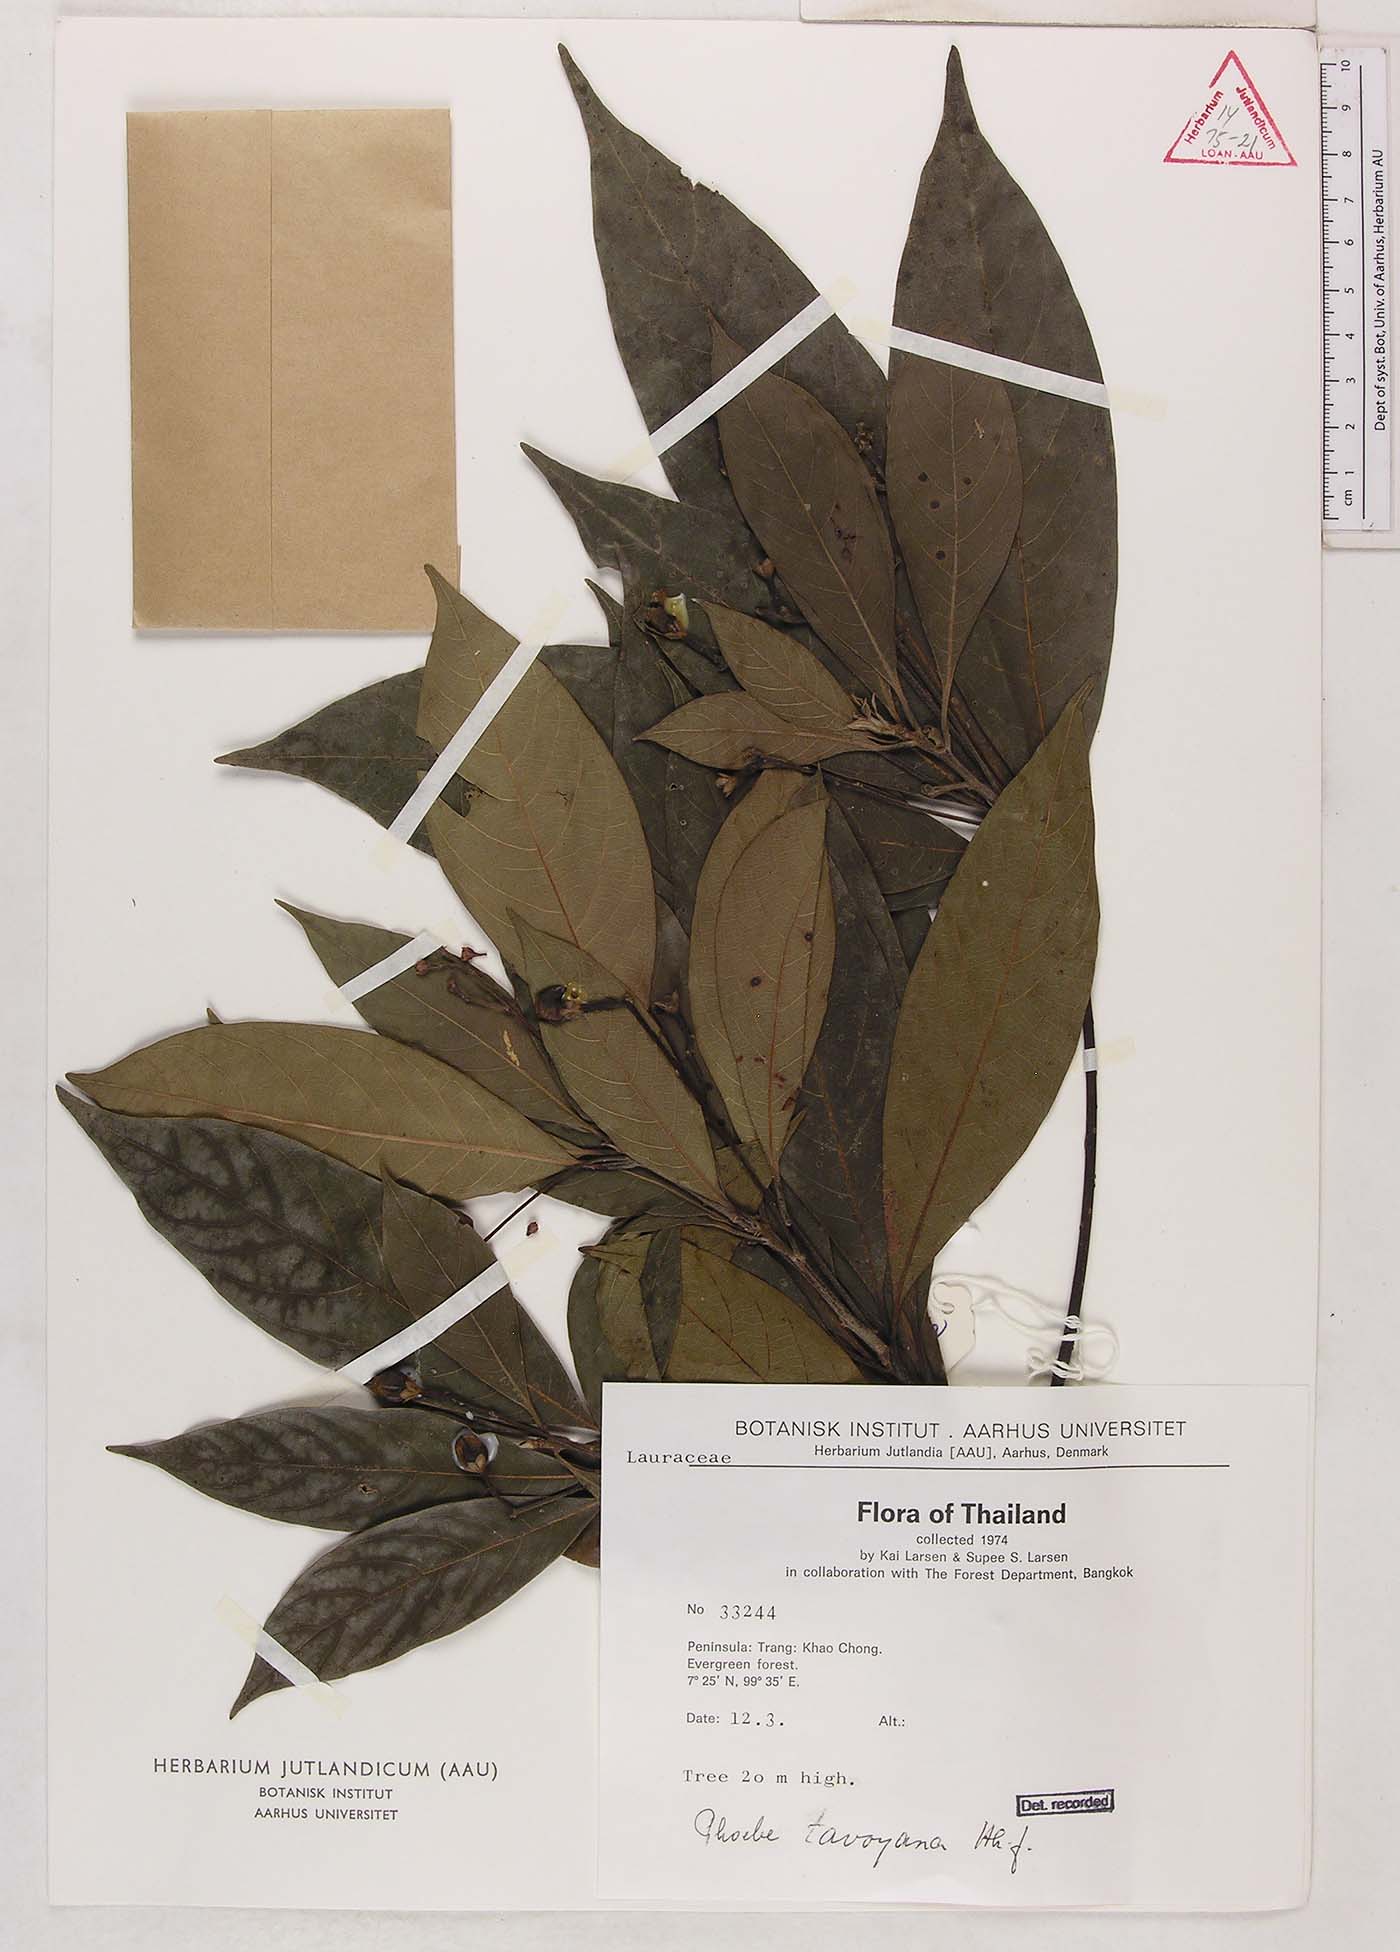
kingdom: Plantae
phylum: Tracheophyta
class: Magnoliopsida
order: Laurales
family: Lauraceae
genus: Phoebe
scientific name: Phoebe tavoyana
